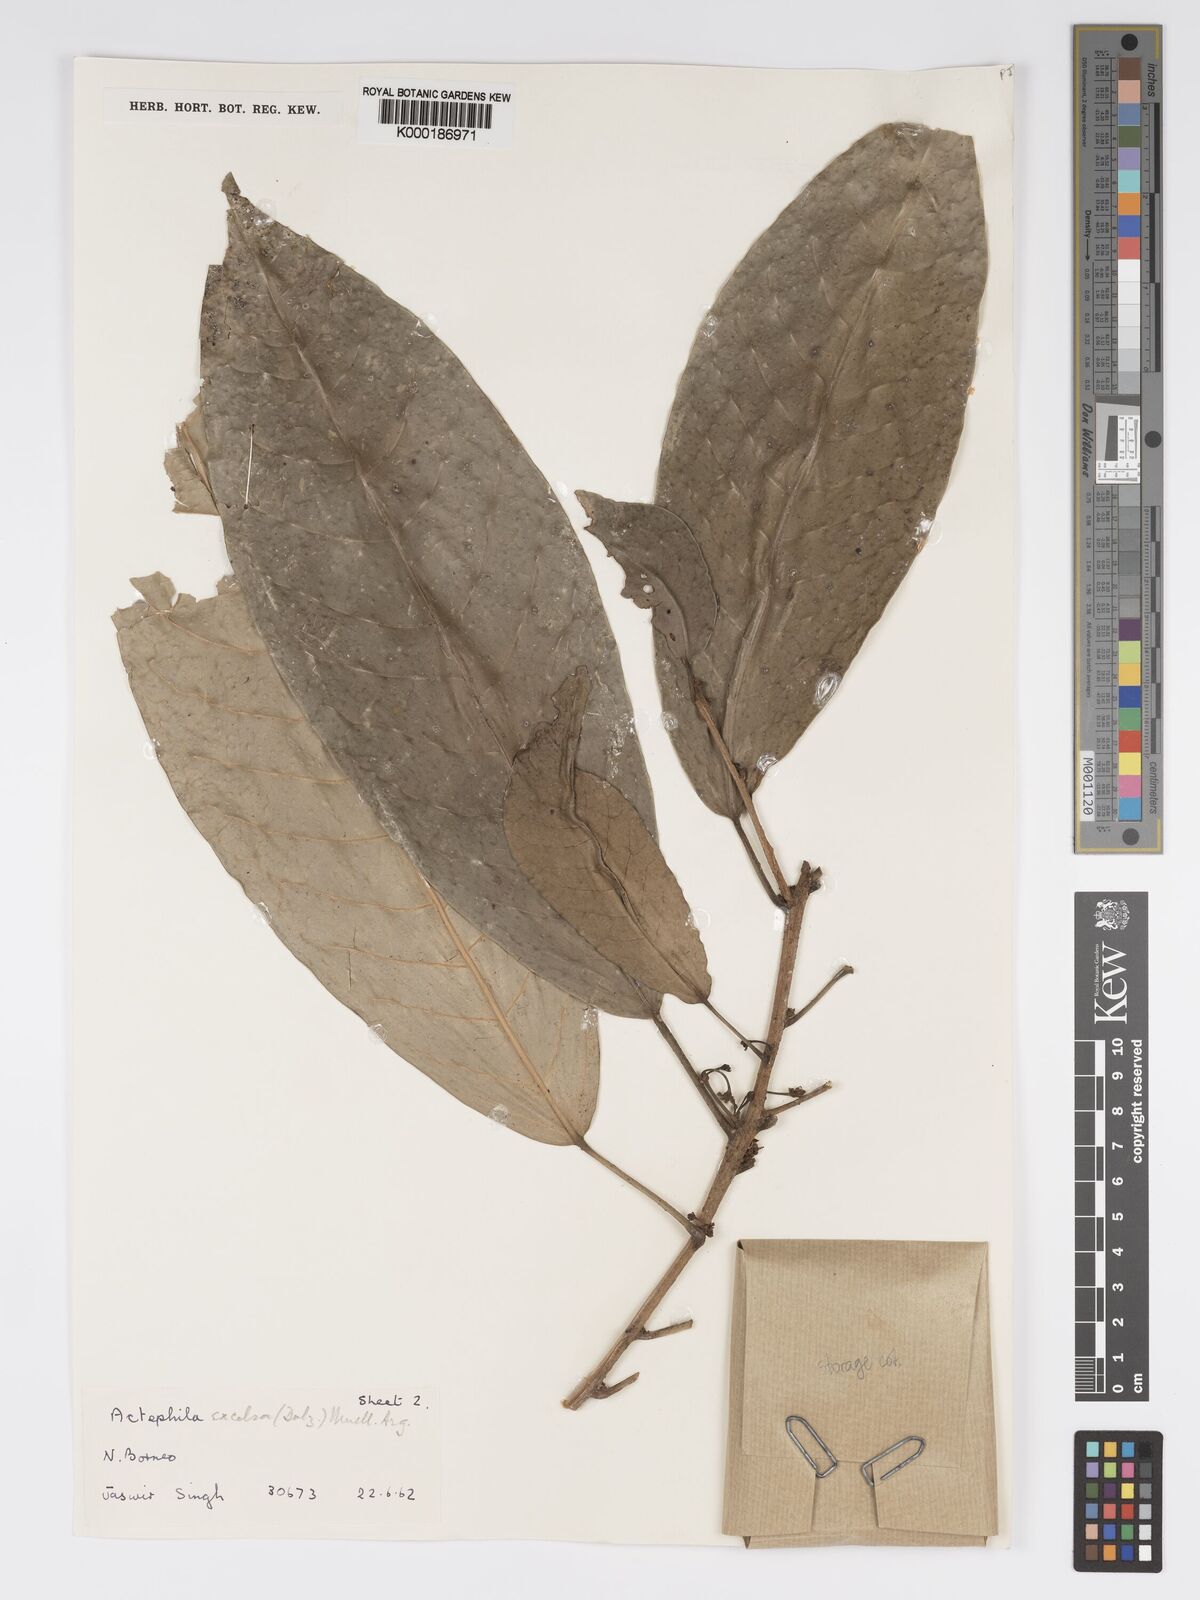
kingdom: Plantae
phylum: Tracheophyta
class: Magnoliopsida
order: Malpighiales
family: Phyllanthaceae
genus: Actephila
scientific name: Actephila
